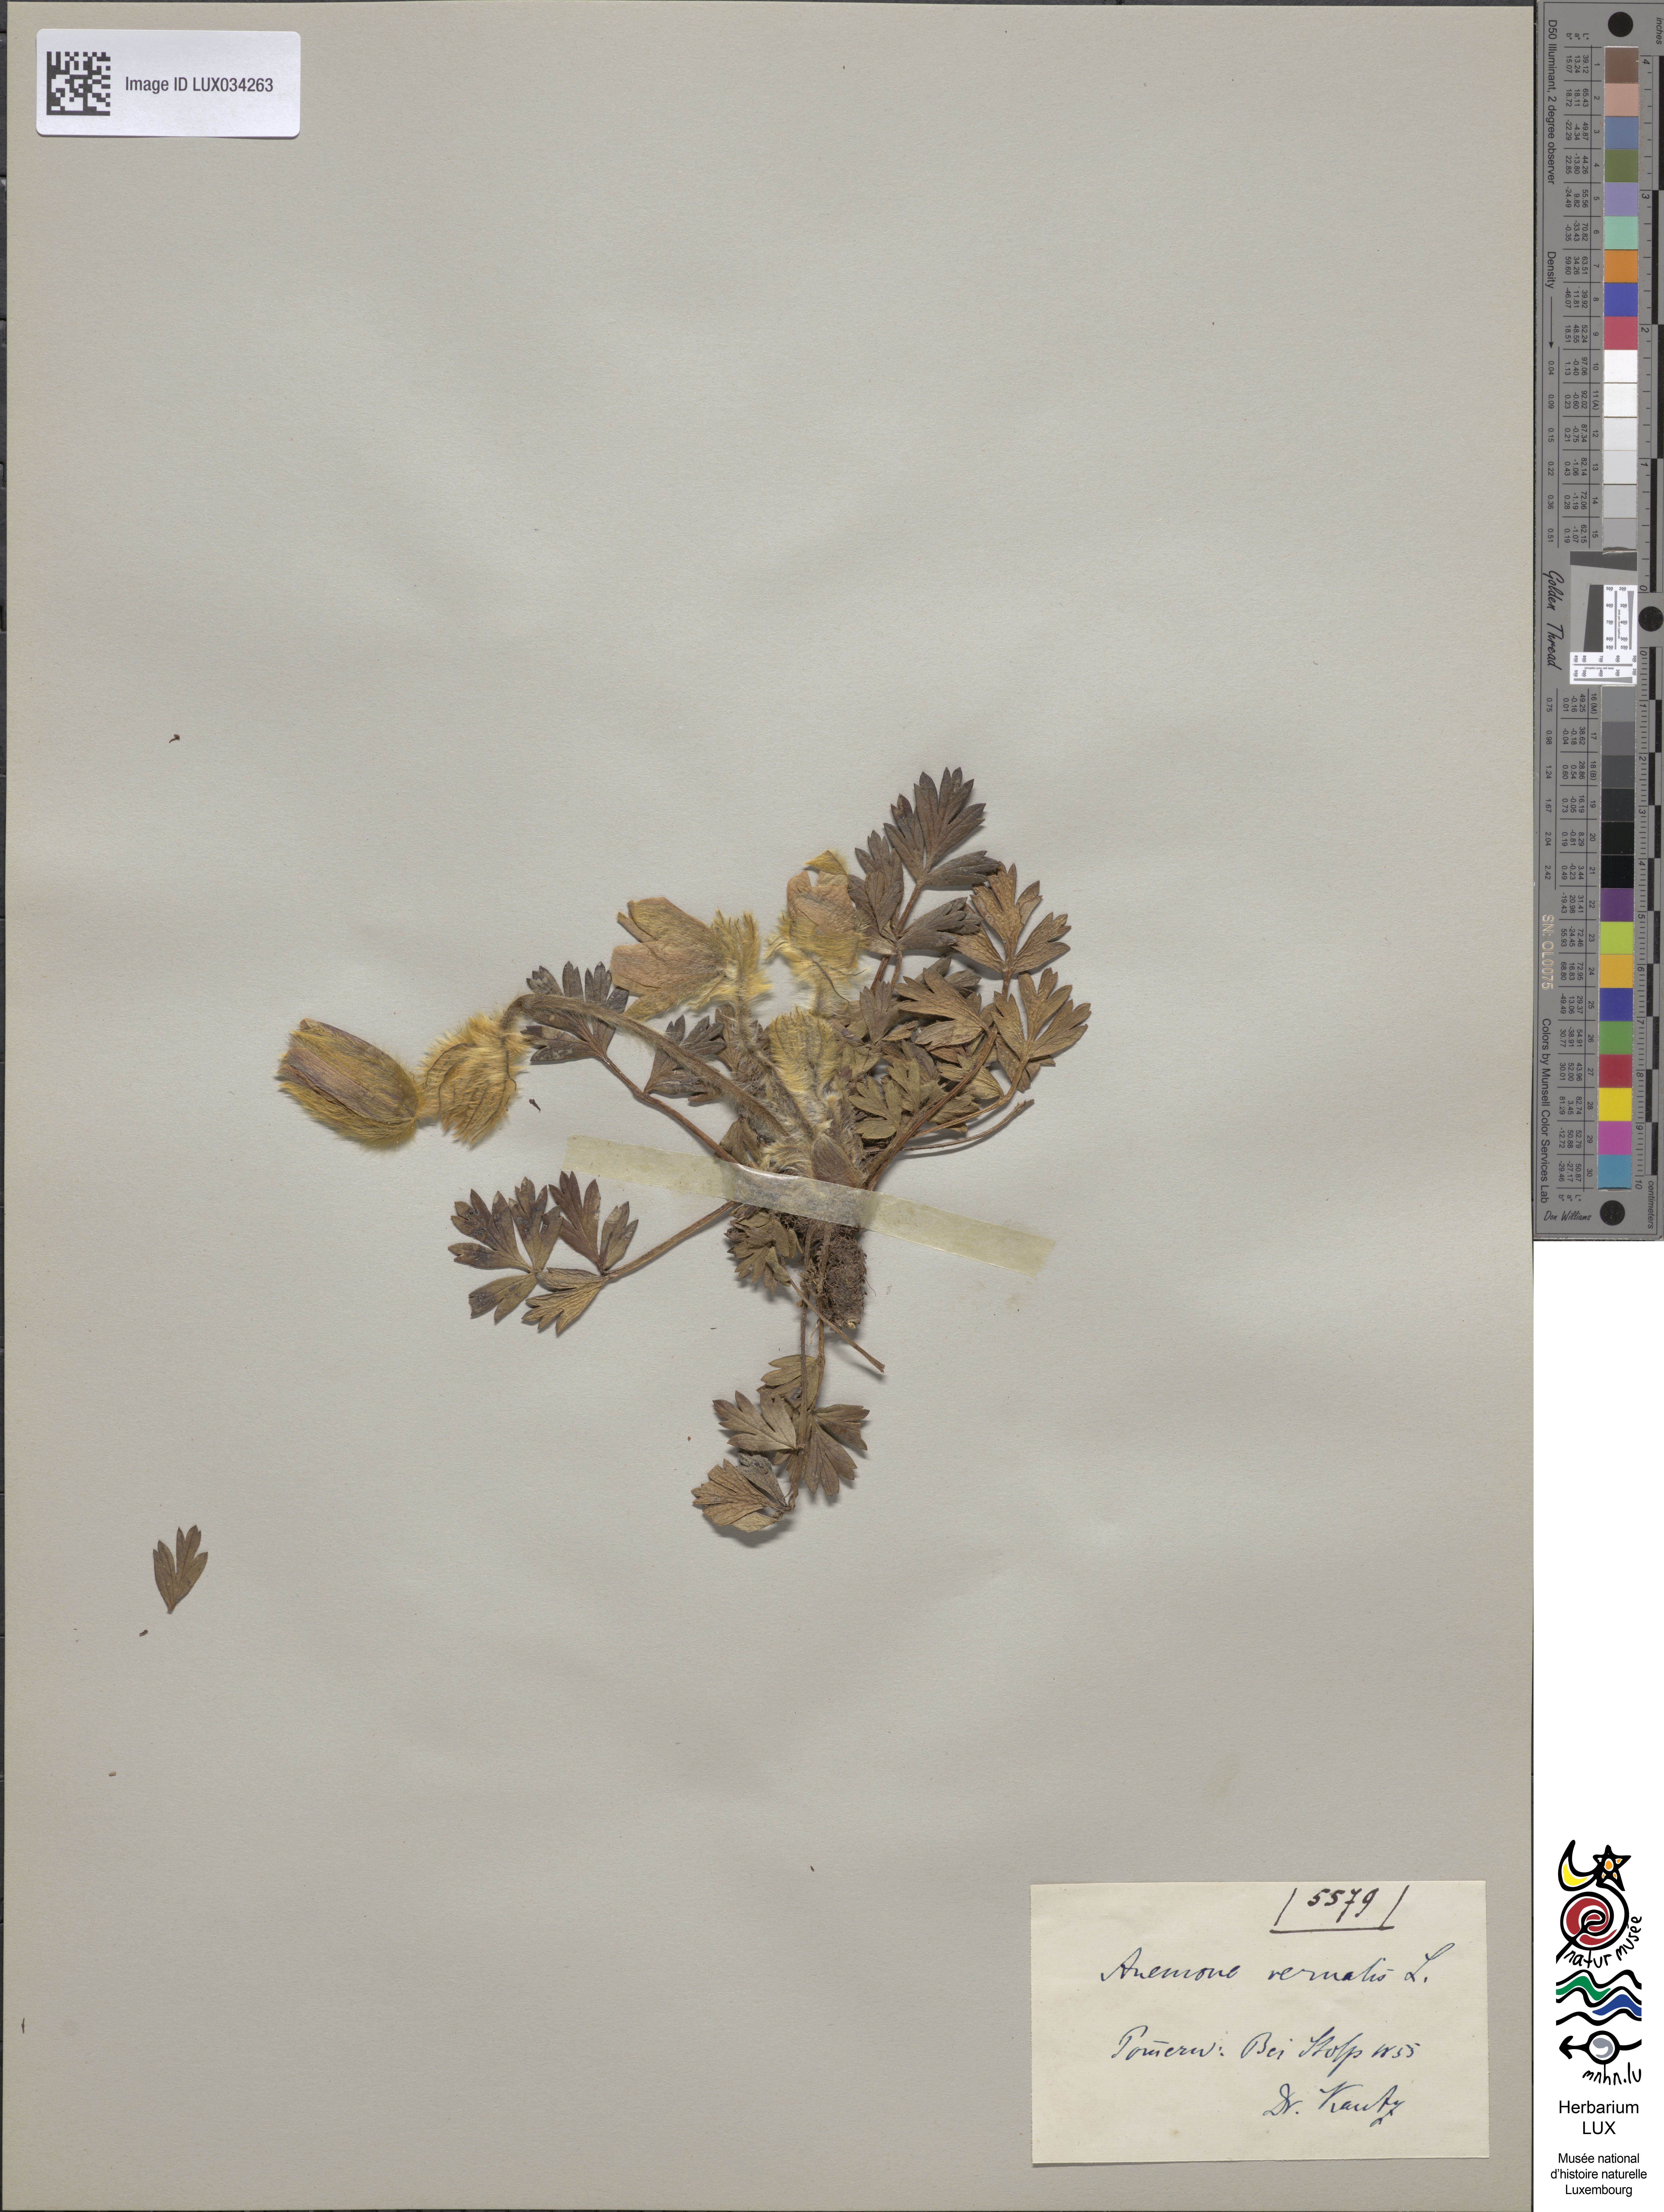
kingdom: Plantae
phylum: Tracheophyta
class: Magnoliopsida
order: Ranunculales
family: Ranunculaceae
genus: Pulsatilla
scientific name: Pulsatilla vernalis
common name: Spring pasque flower
